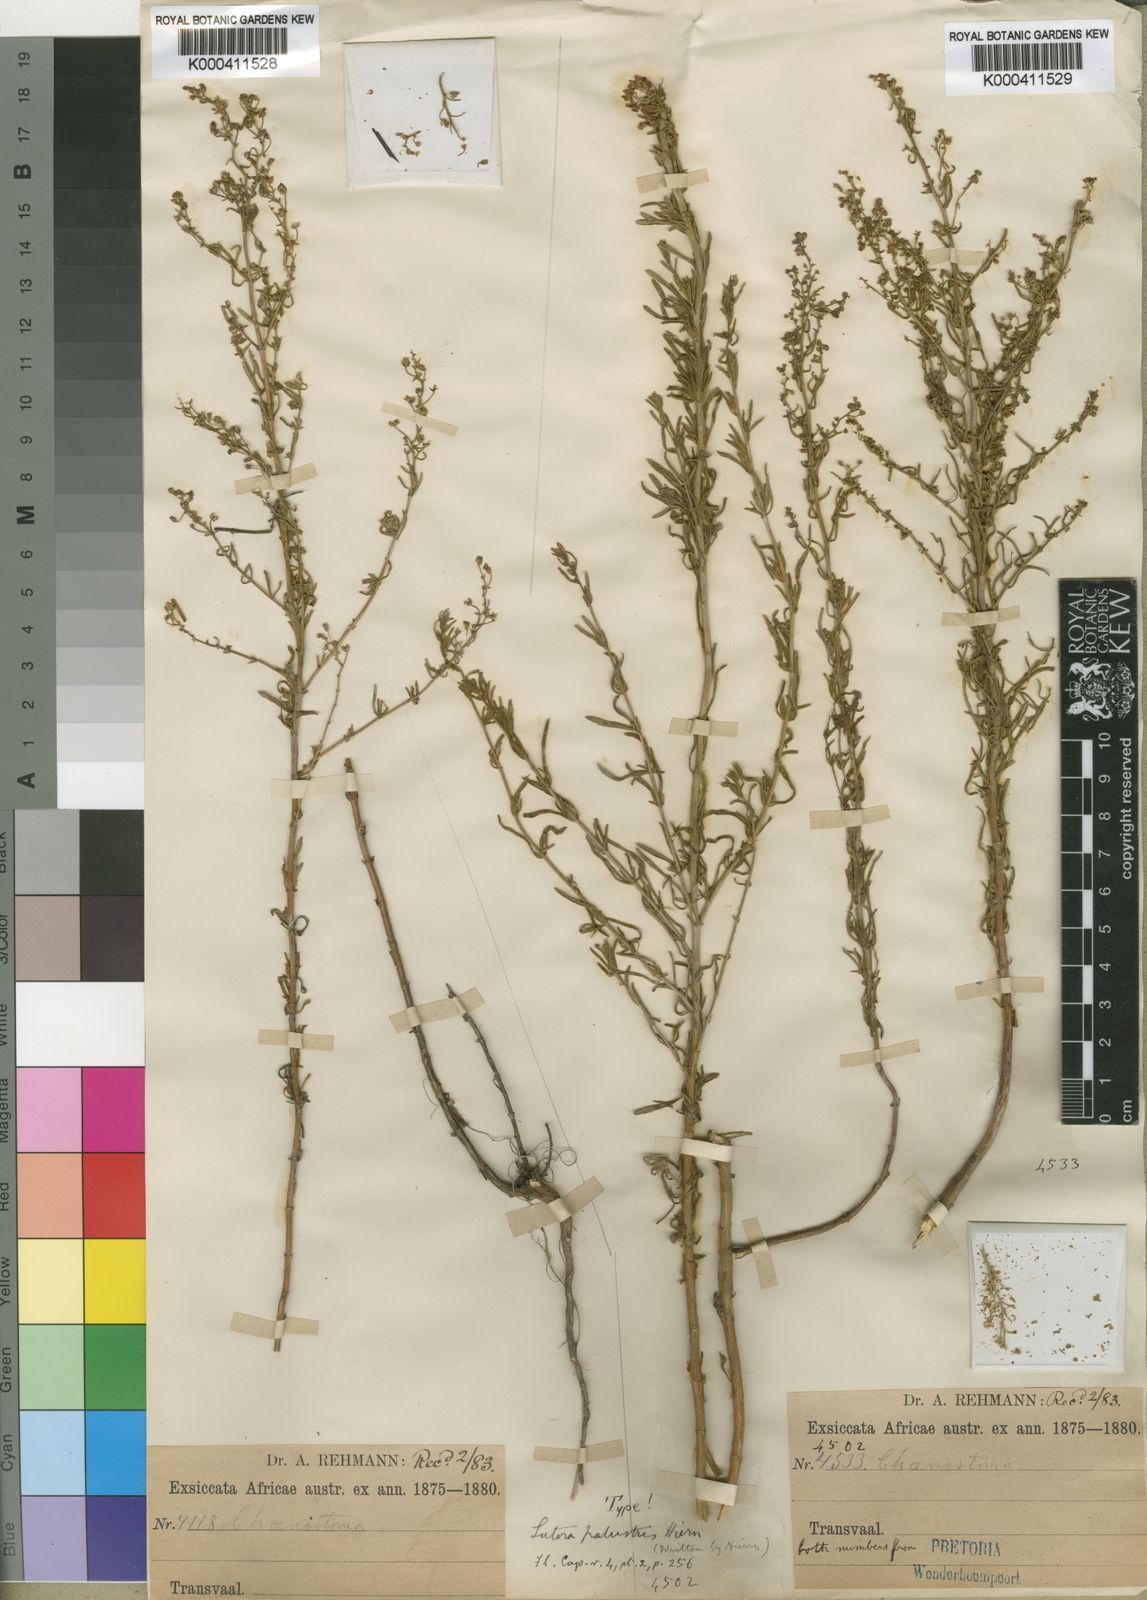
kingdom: Plantae
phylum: Tracheophyta
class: Magnoliopsida
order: Lamiales
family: Scrophulariaceae
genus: Chaenostoma
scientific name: Chaenostoma leve
